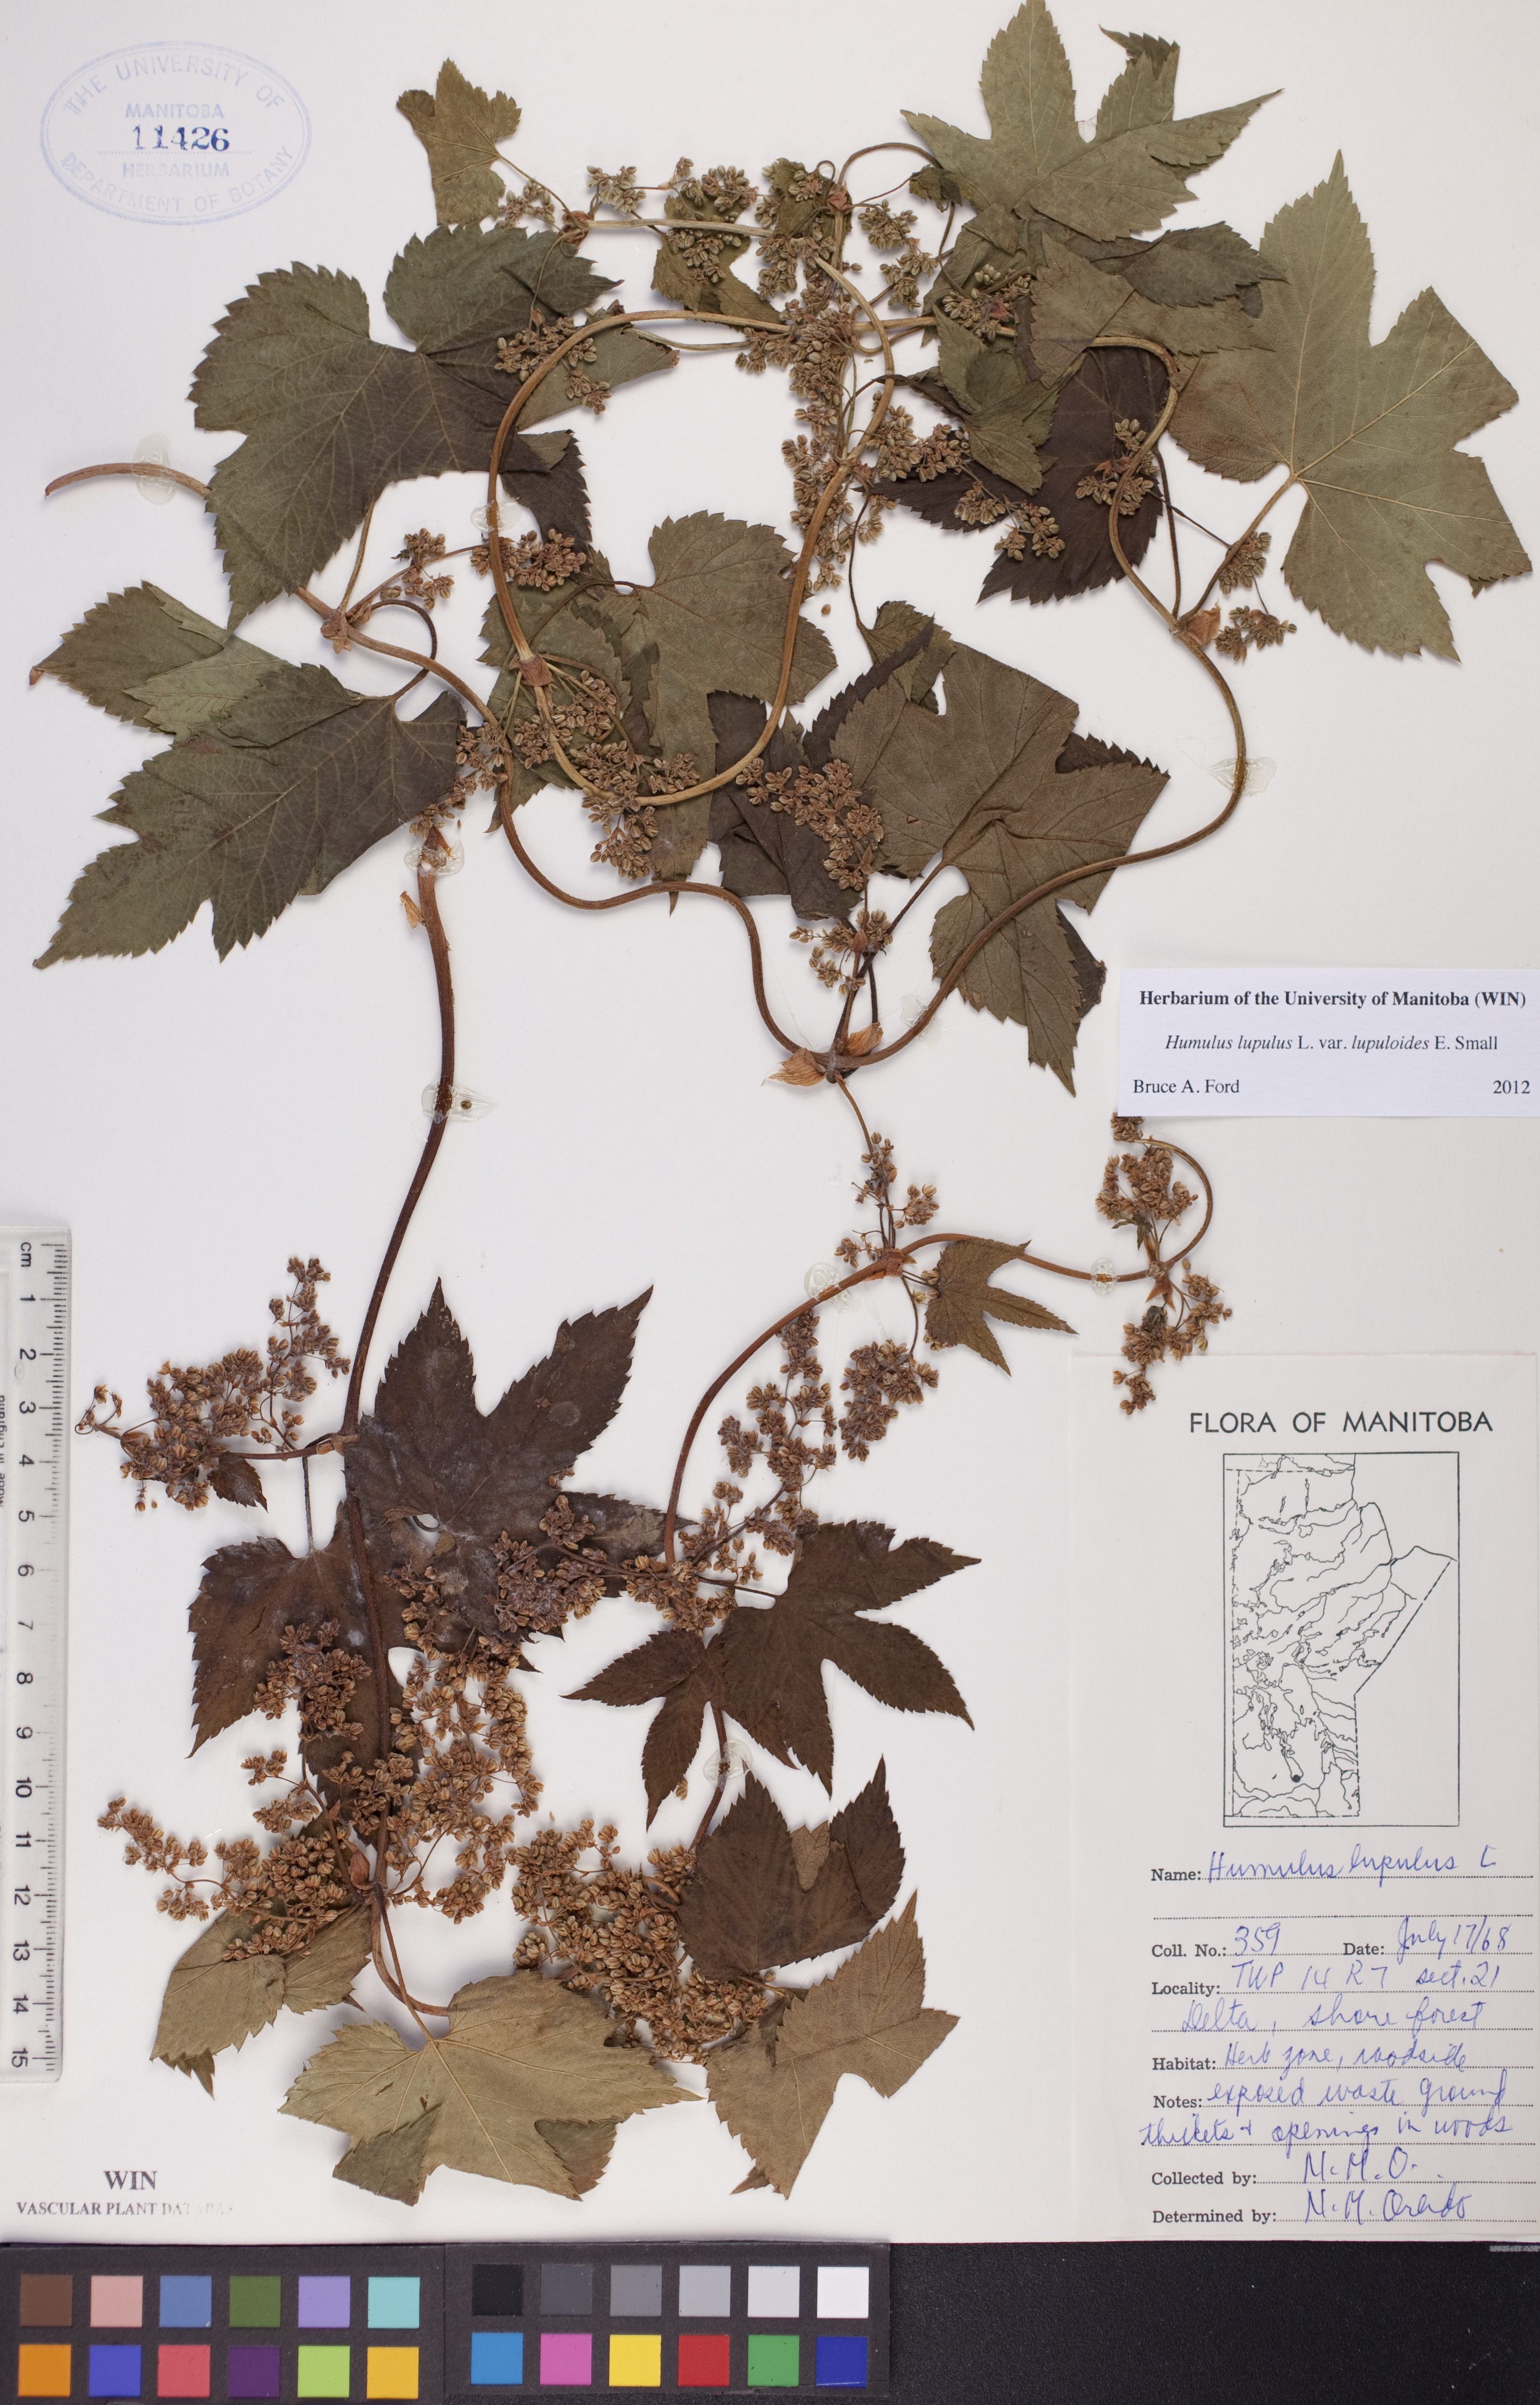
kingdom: Plantae
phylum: Tracheophyta
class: Magnoliopsida
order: Rosales
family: Cannabaceae
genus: Humulus
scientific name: Humulus lupulus
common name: Hop
